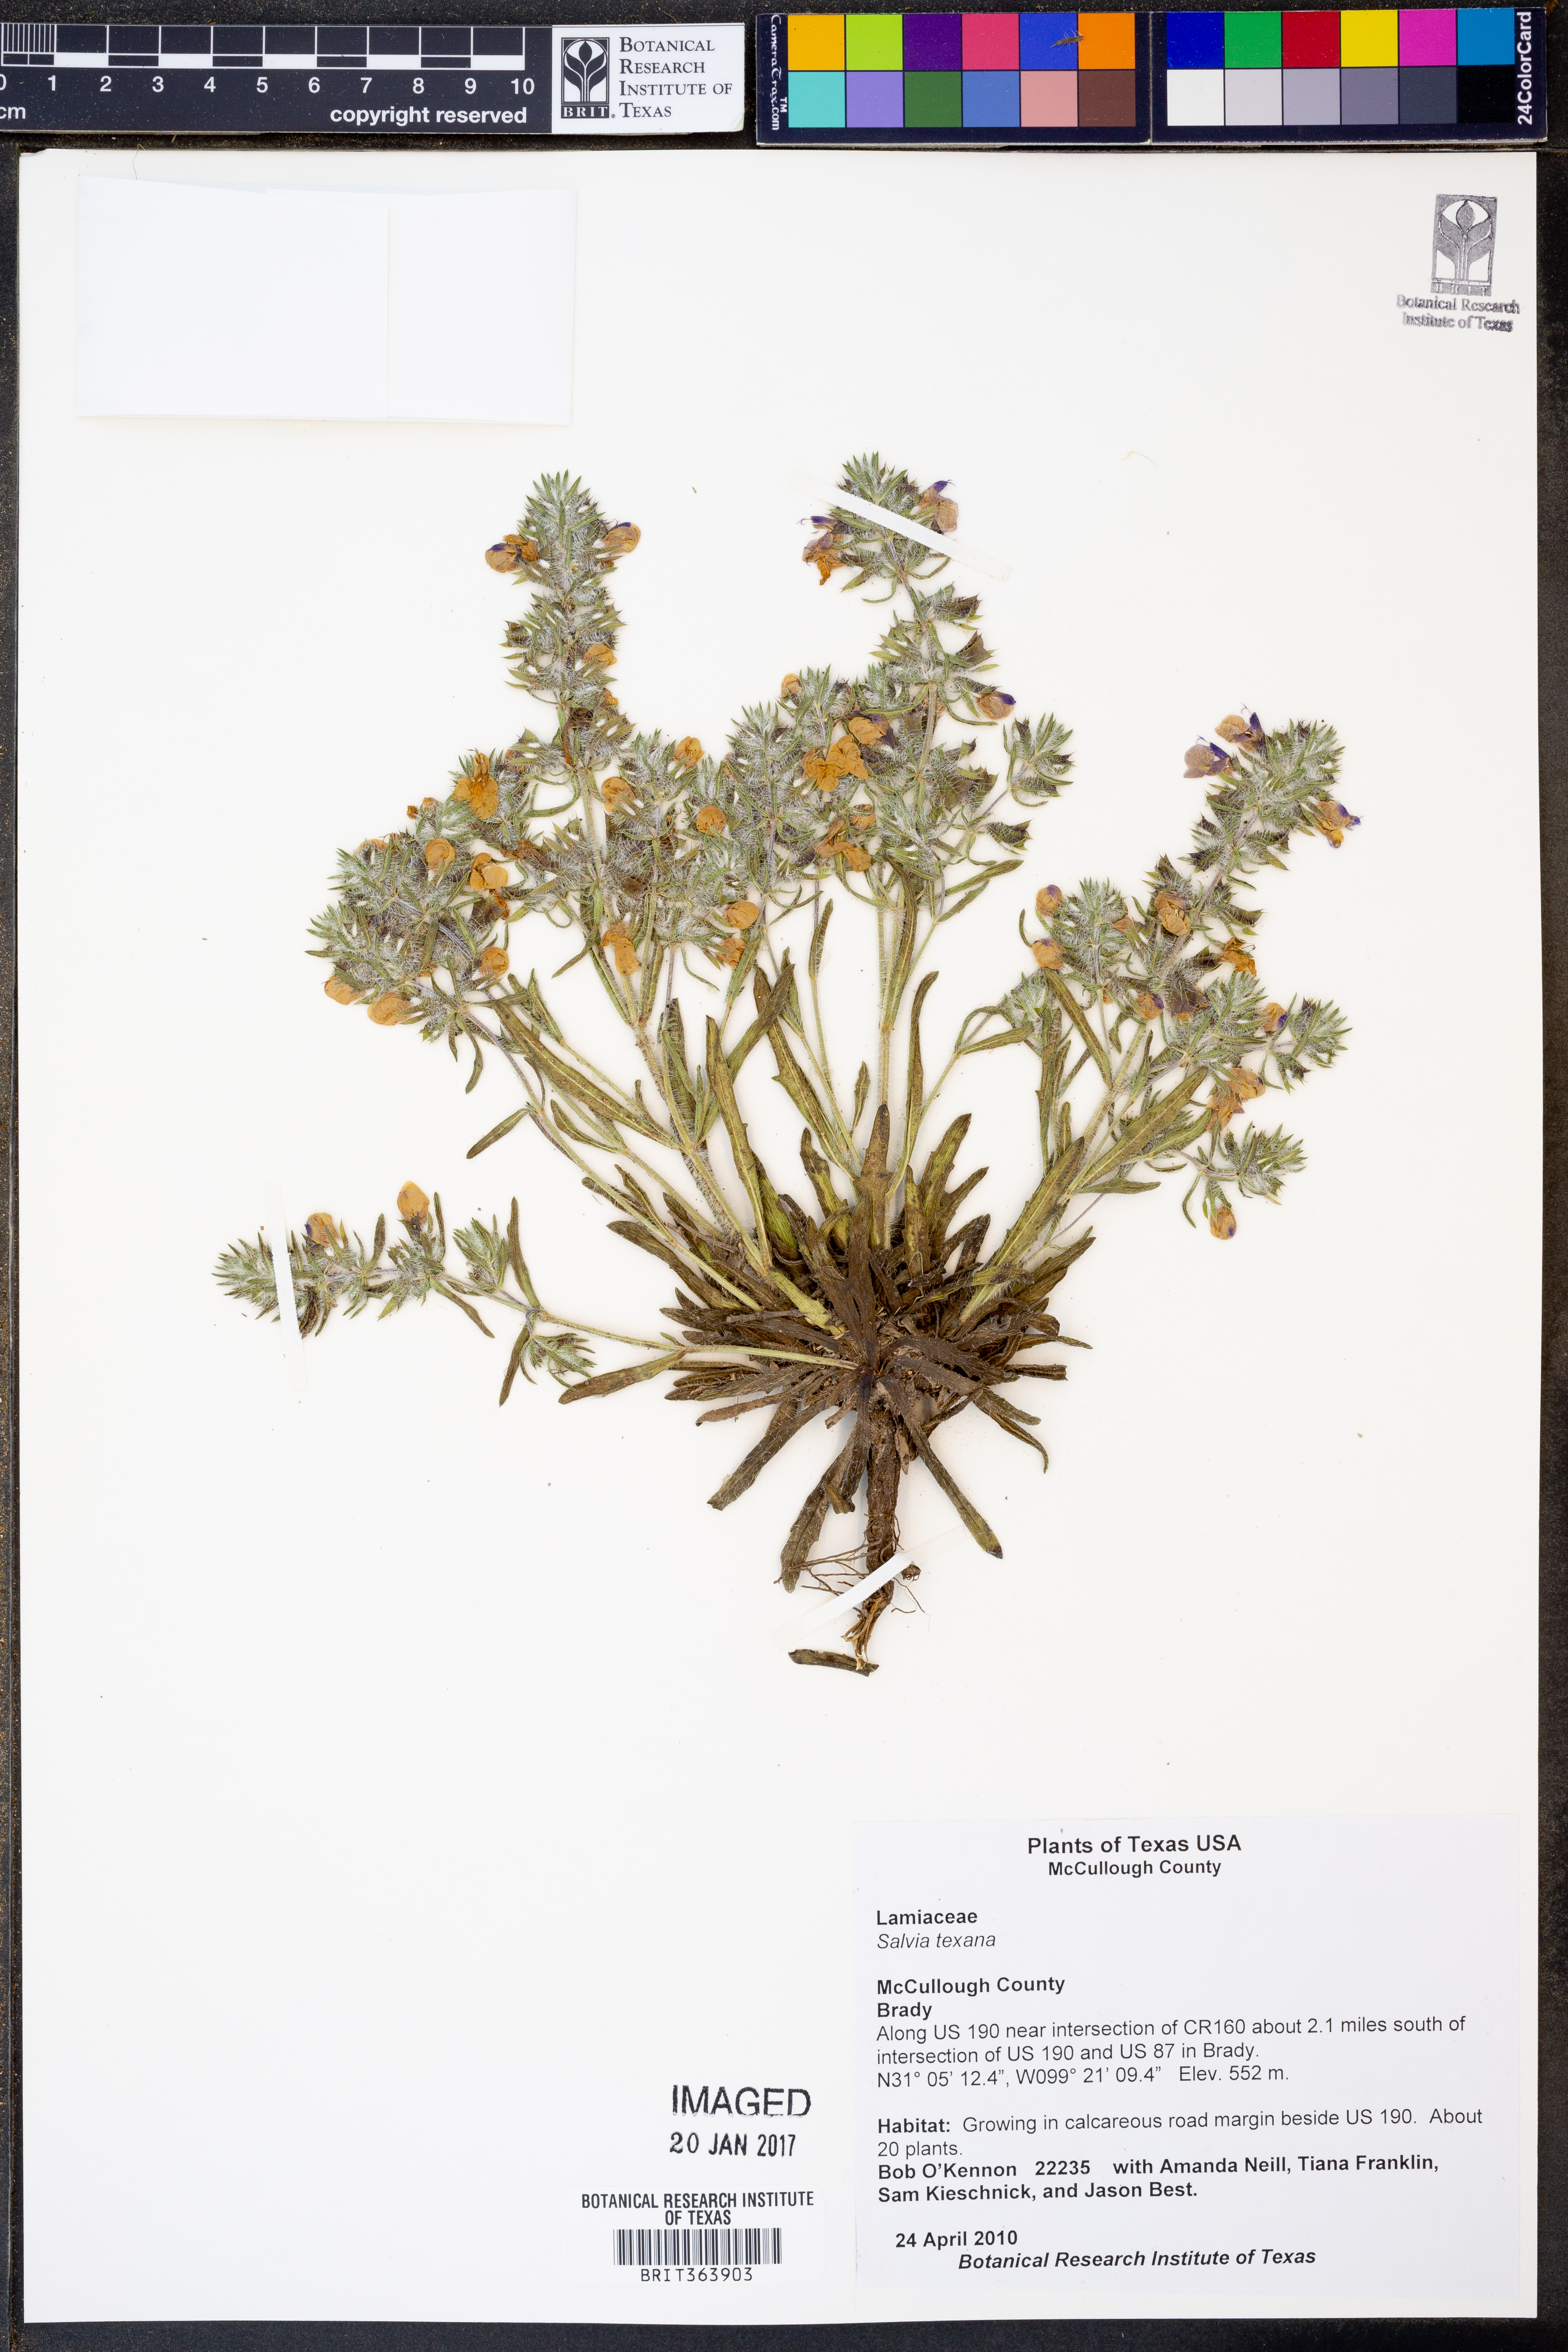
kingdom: Plantae
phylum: Tracheophyta
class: Magnoliopsida
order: Lamiales
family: Lamiaceae
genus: Salvia
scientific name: Salvia texana
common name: Texas sage
